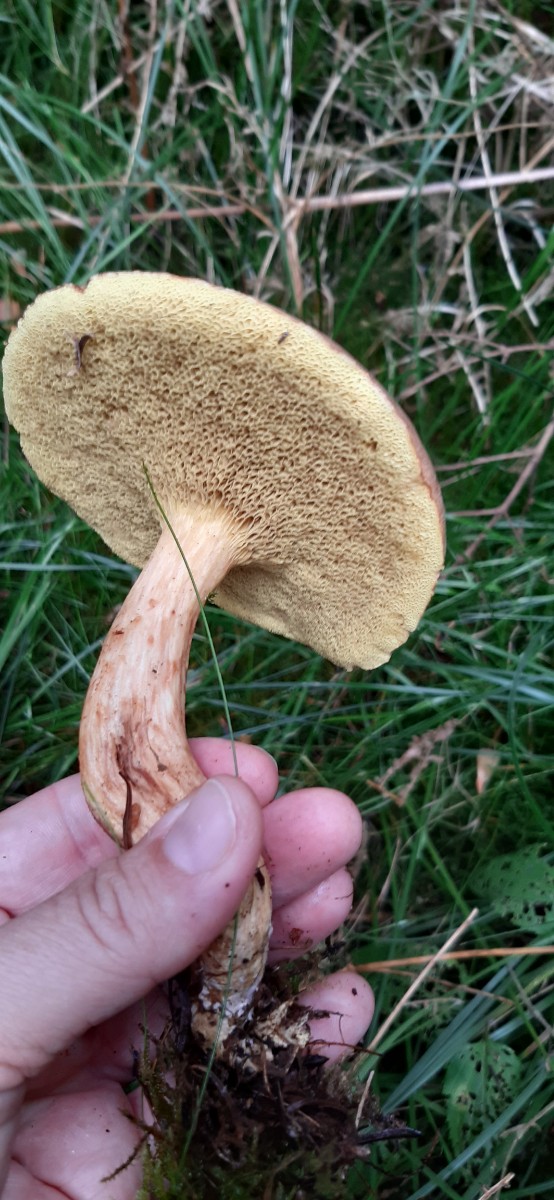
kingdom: Fungi
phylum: Basidiomycota
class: Agaricomycetes
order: Boletales
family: Boletaceae
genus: Xerocomus
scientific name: Xerocomus
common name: filtrørhat
